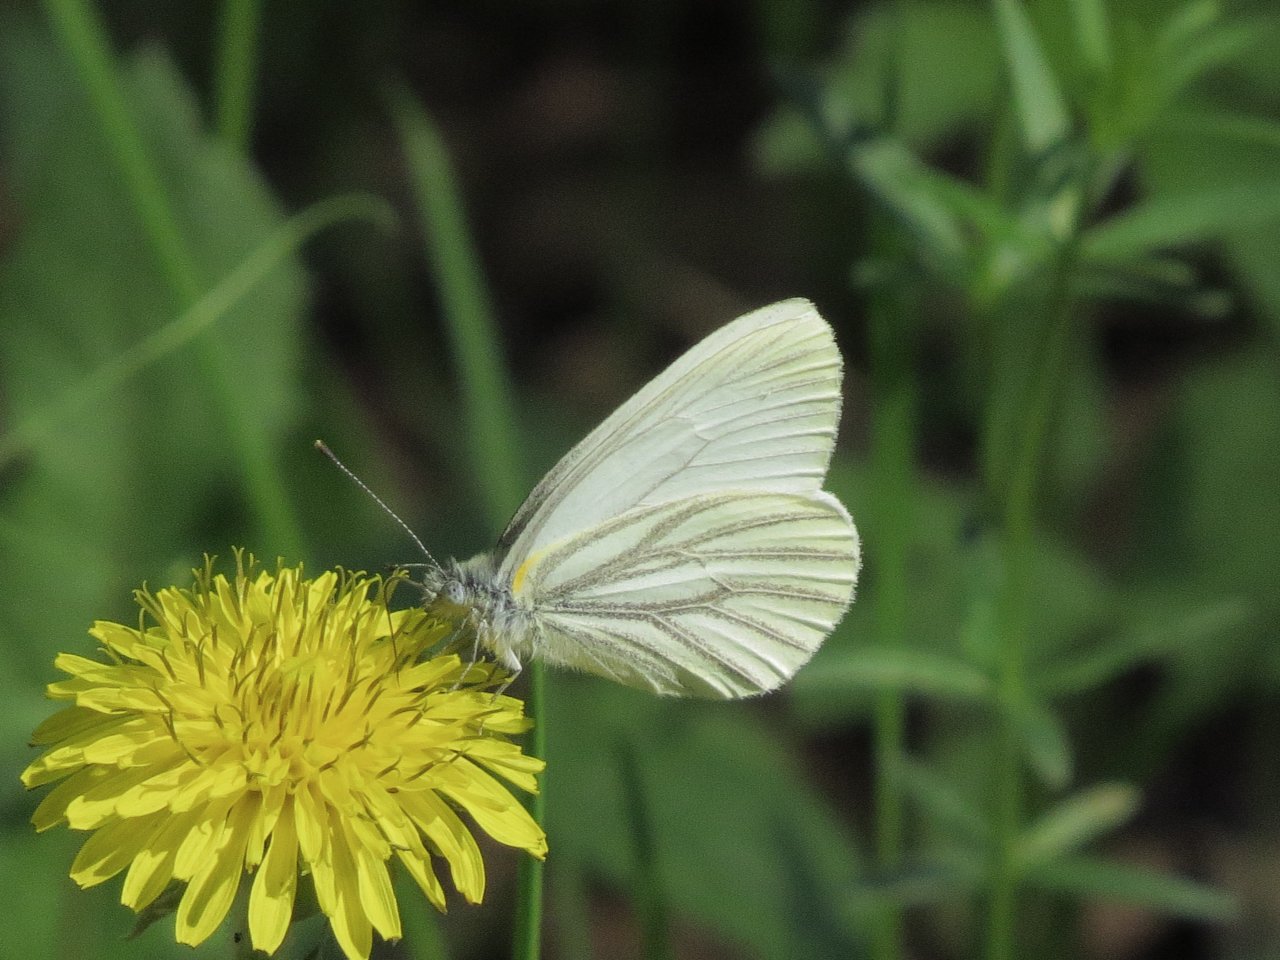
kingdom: Animalia
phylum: Arthropoda
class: Insecta
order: Lepidoptera
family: Pieridae
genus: Pieris
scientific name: Pieris oleracea
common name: Mustard White
